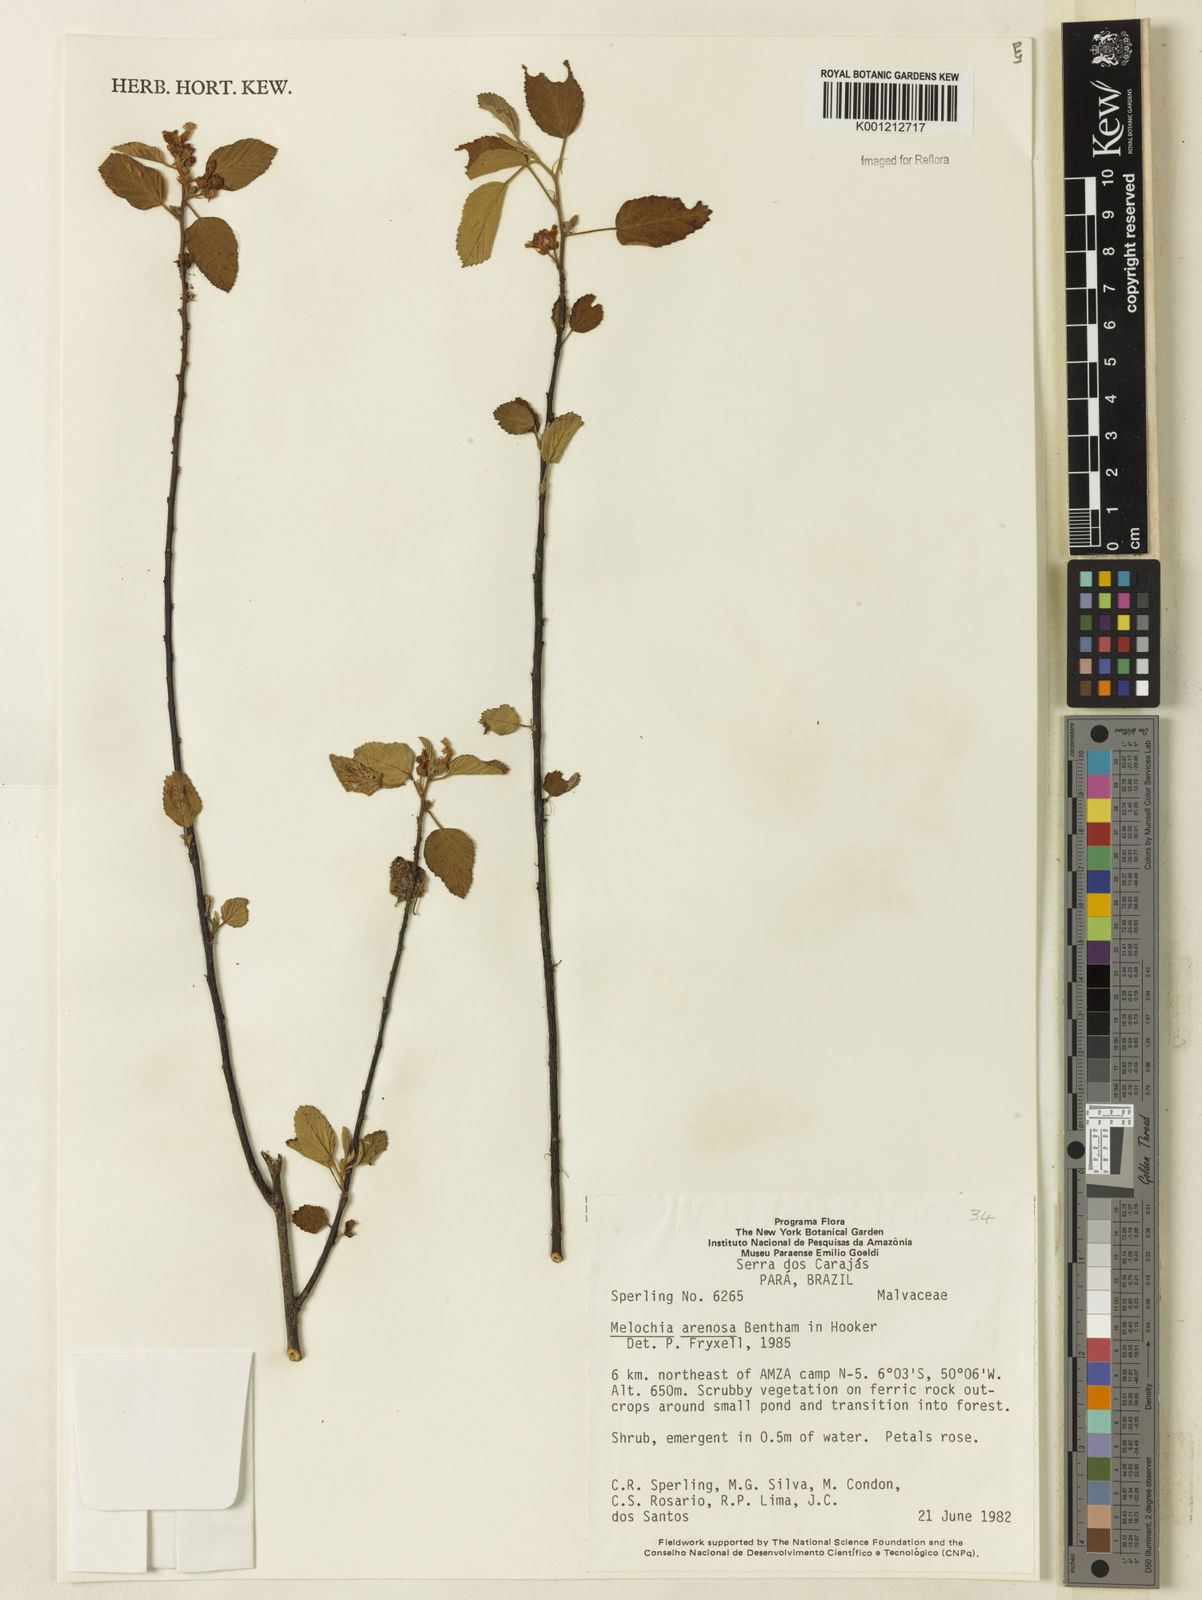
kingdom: Plantae
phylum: Tracheophyta
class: Magnoliopsida
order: Malvales
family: Malvaceae
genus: Melochia
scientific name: Melochia arenosa
